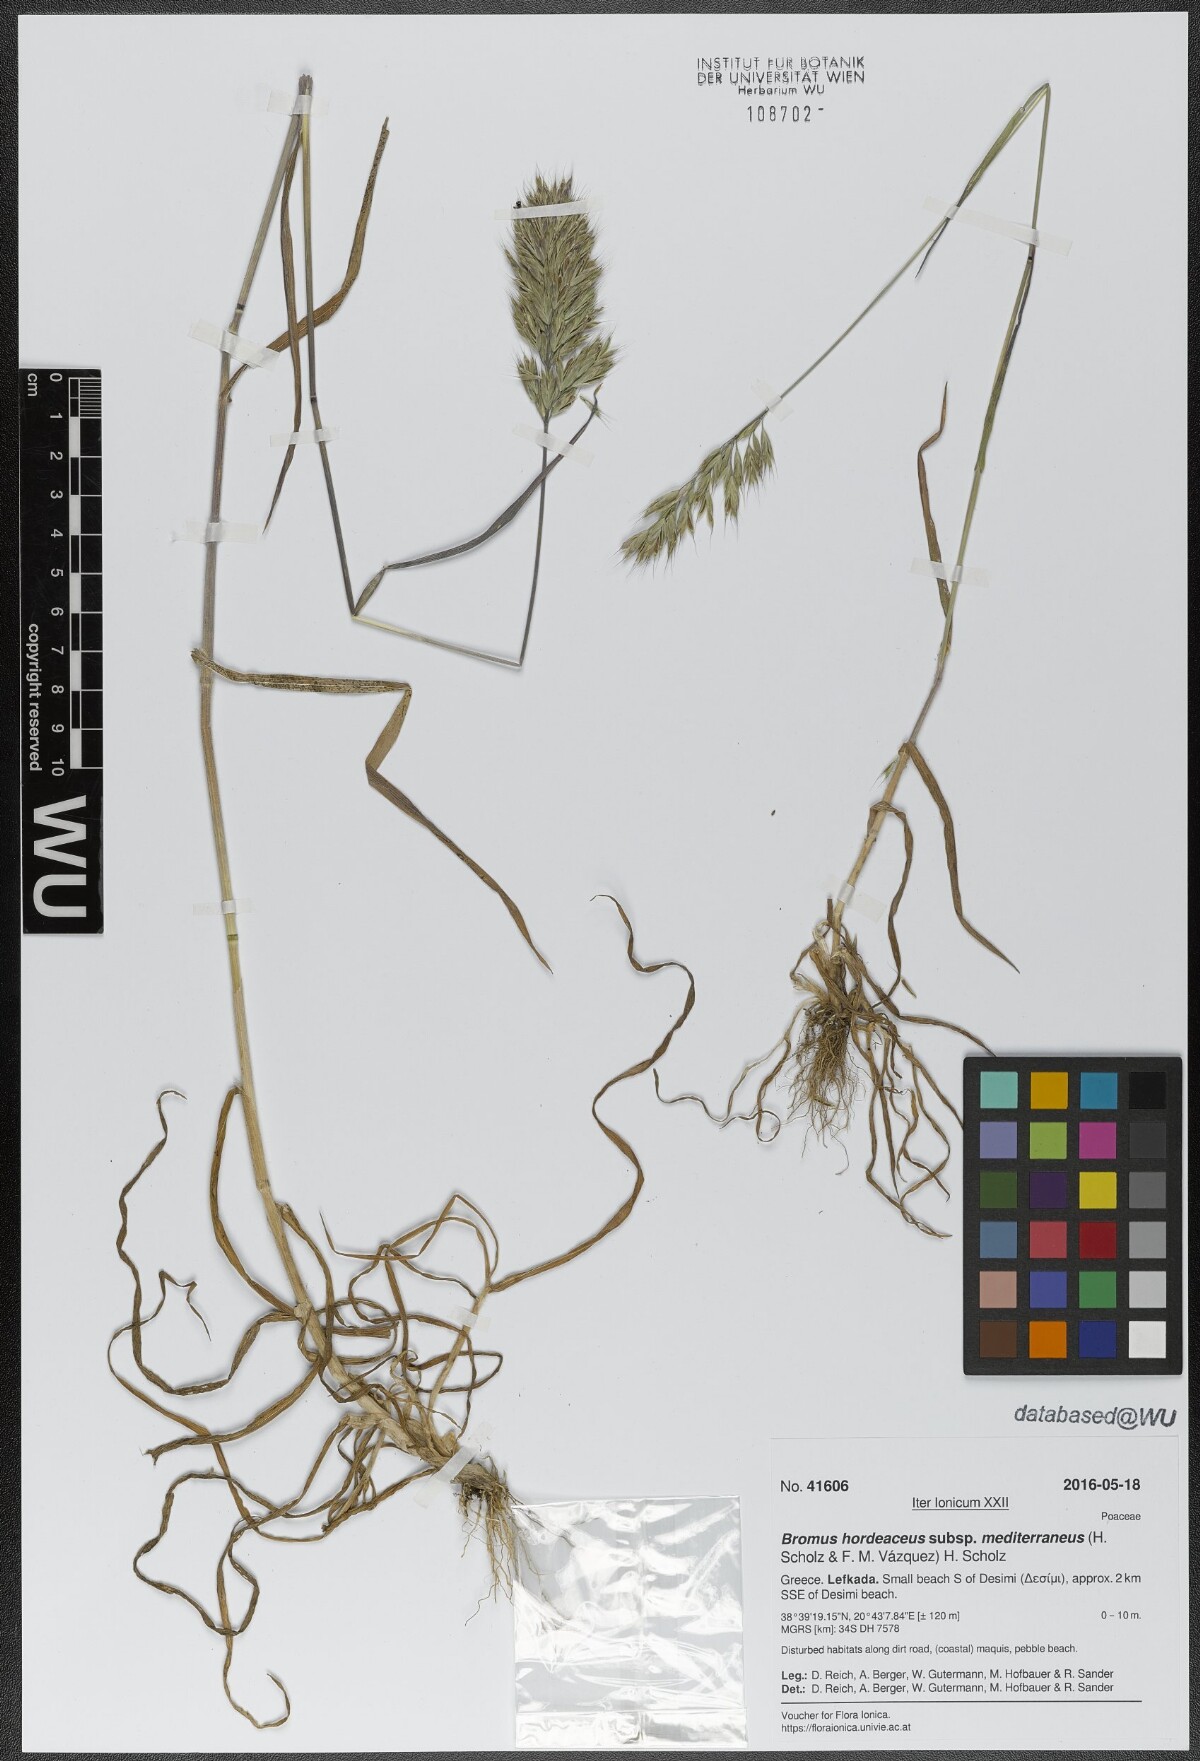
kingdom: Plantae
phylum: Tracheophyta
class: Liliopsida
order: Poales
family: Poaceae
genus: Bromus
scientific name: Bromus hordeaceus
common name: Soft brome
